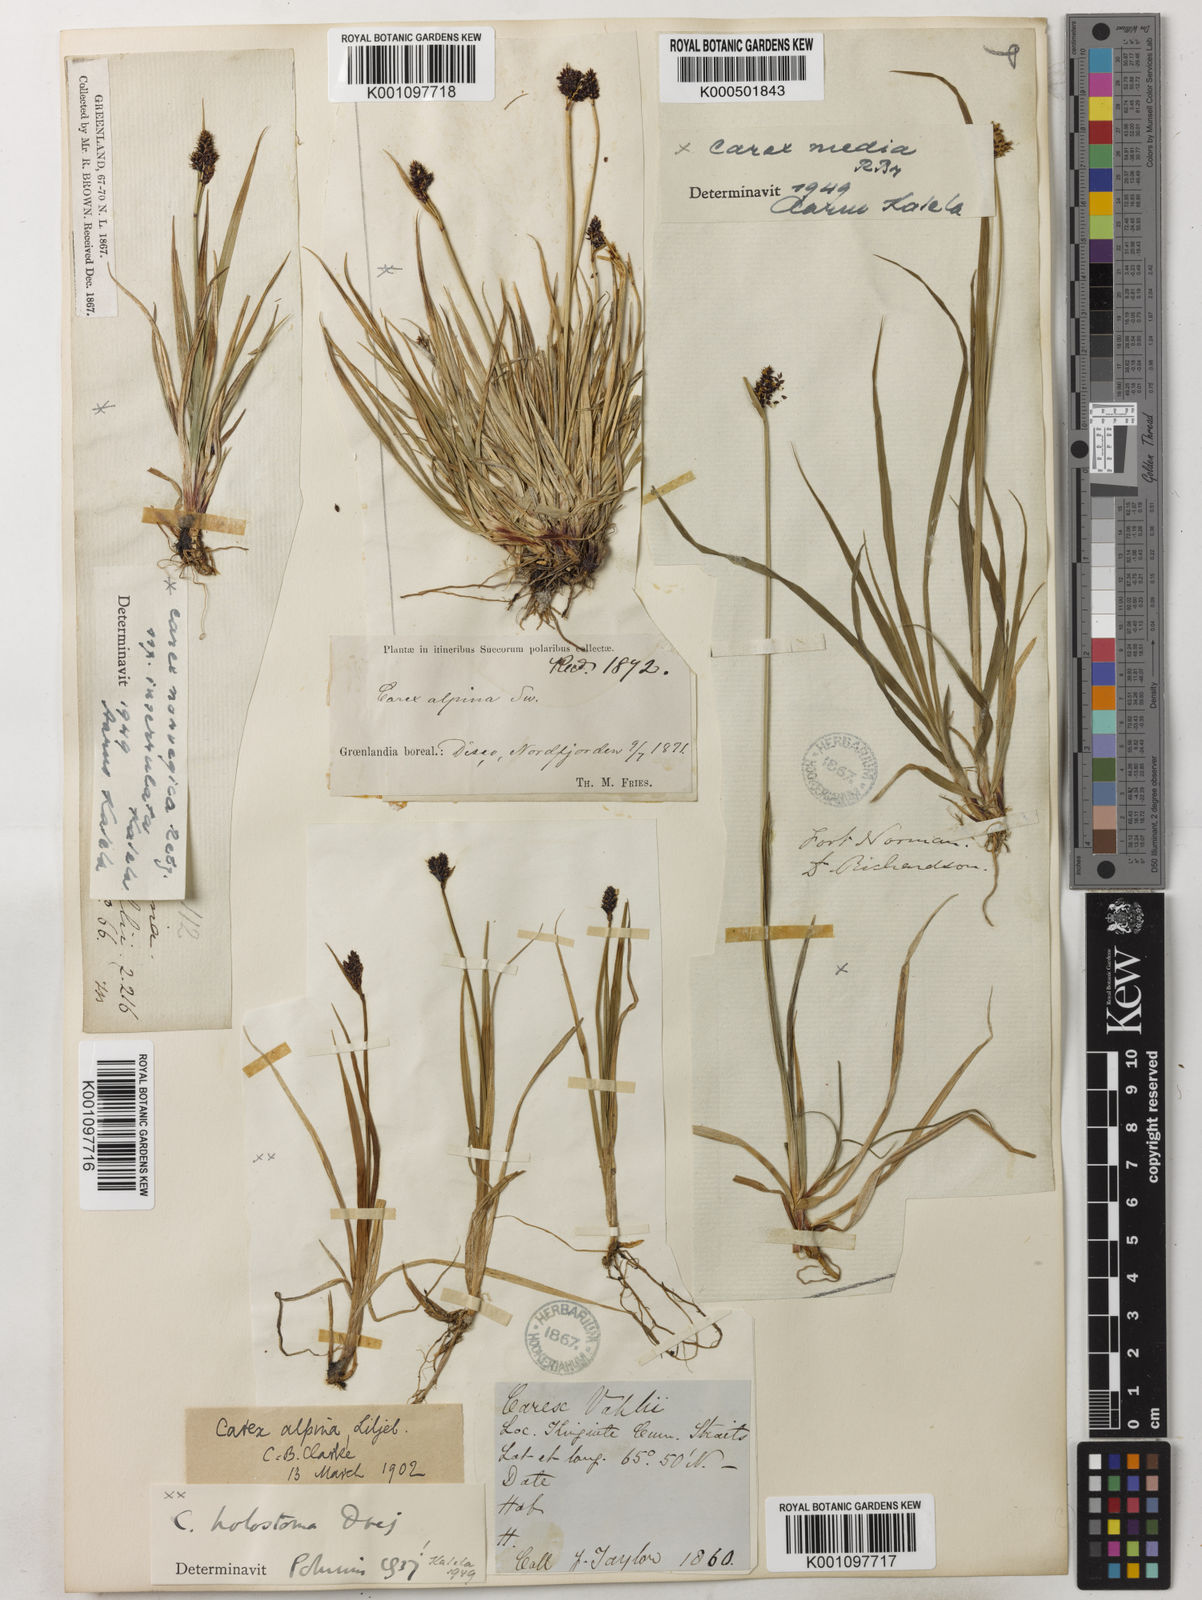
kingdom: Plantae
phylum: Tracheophyta
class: Liliopsida
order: Poales
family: Cyperaceae
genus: Carex
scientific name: Carex media
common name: Alpine sedge
